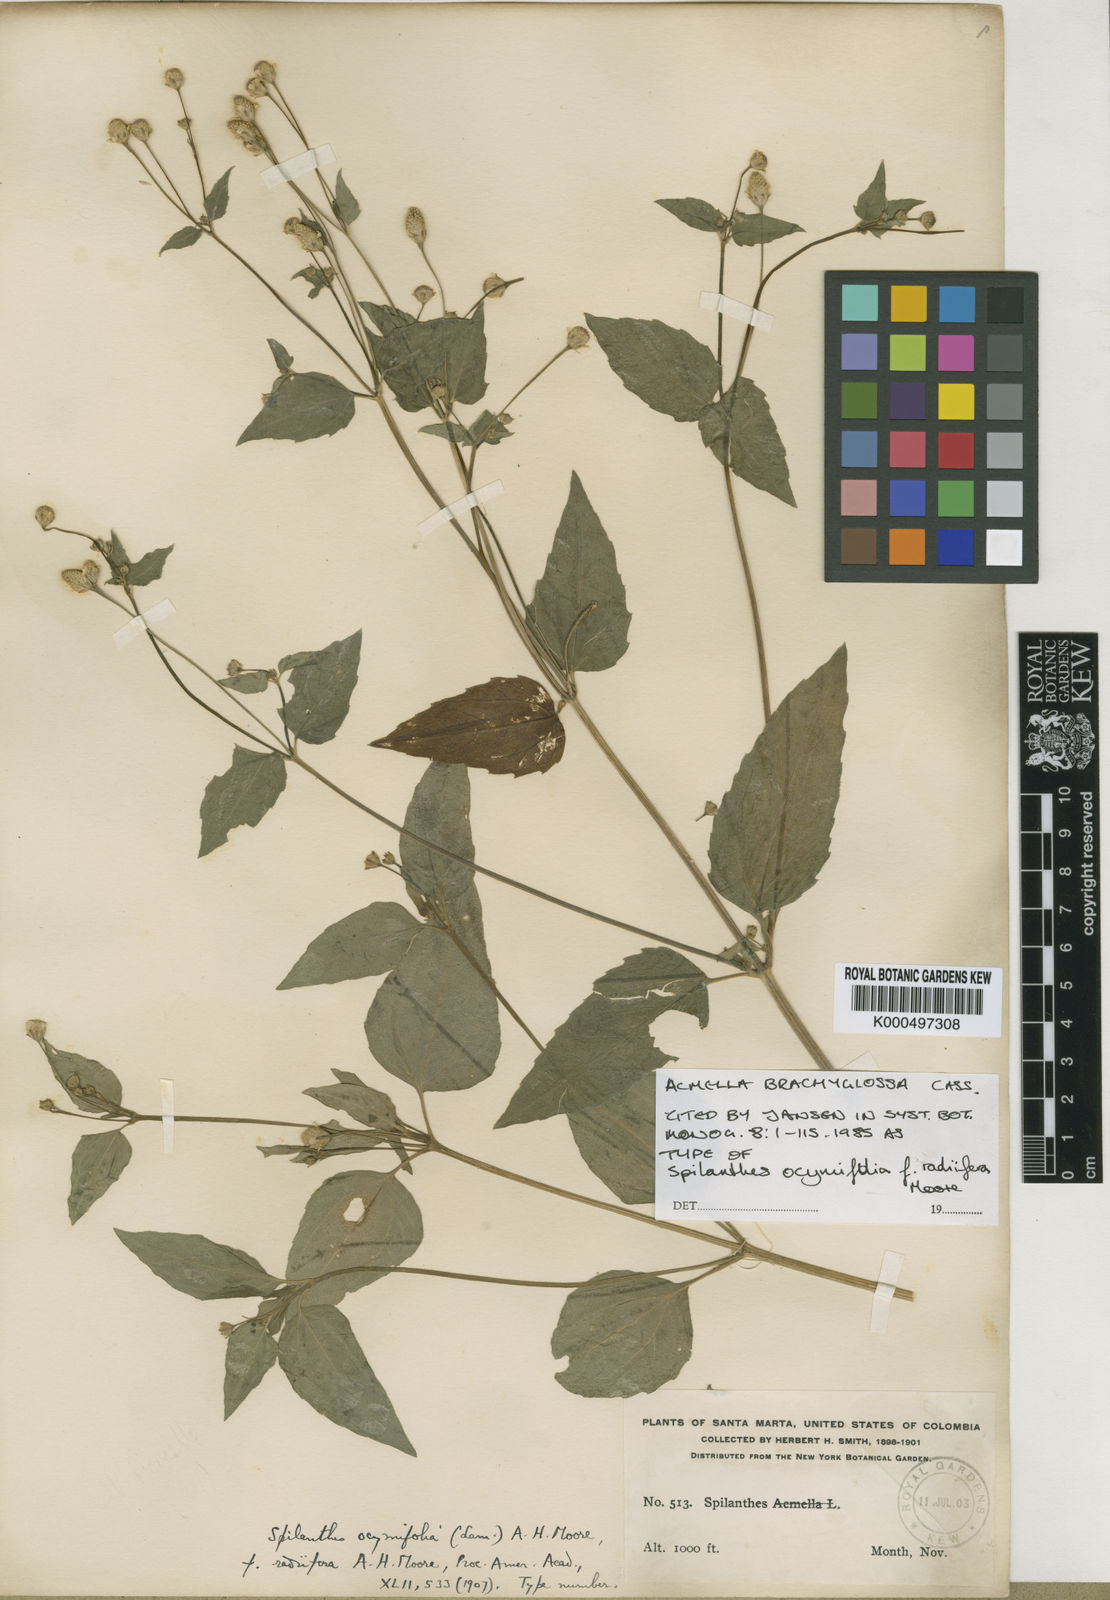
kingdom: Plantae
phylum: Tracheophyta
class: Magnoliopsida
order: Asterales
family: Asteraceae
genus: Acmella
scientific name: Acmella brachyglossa
